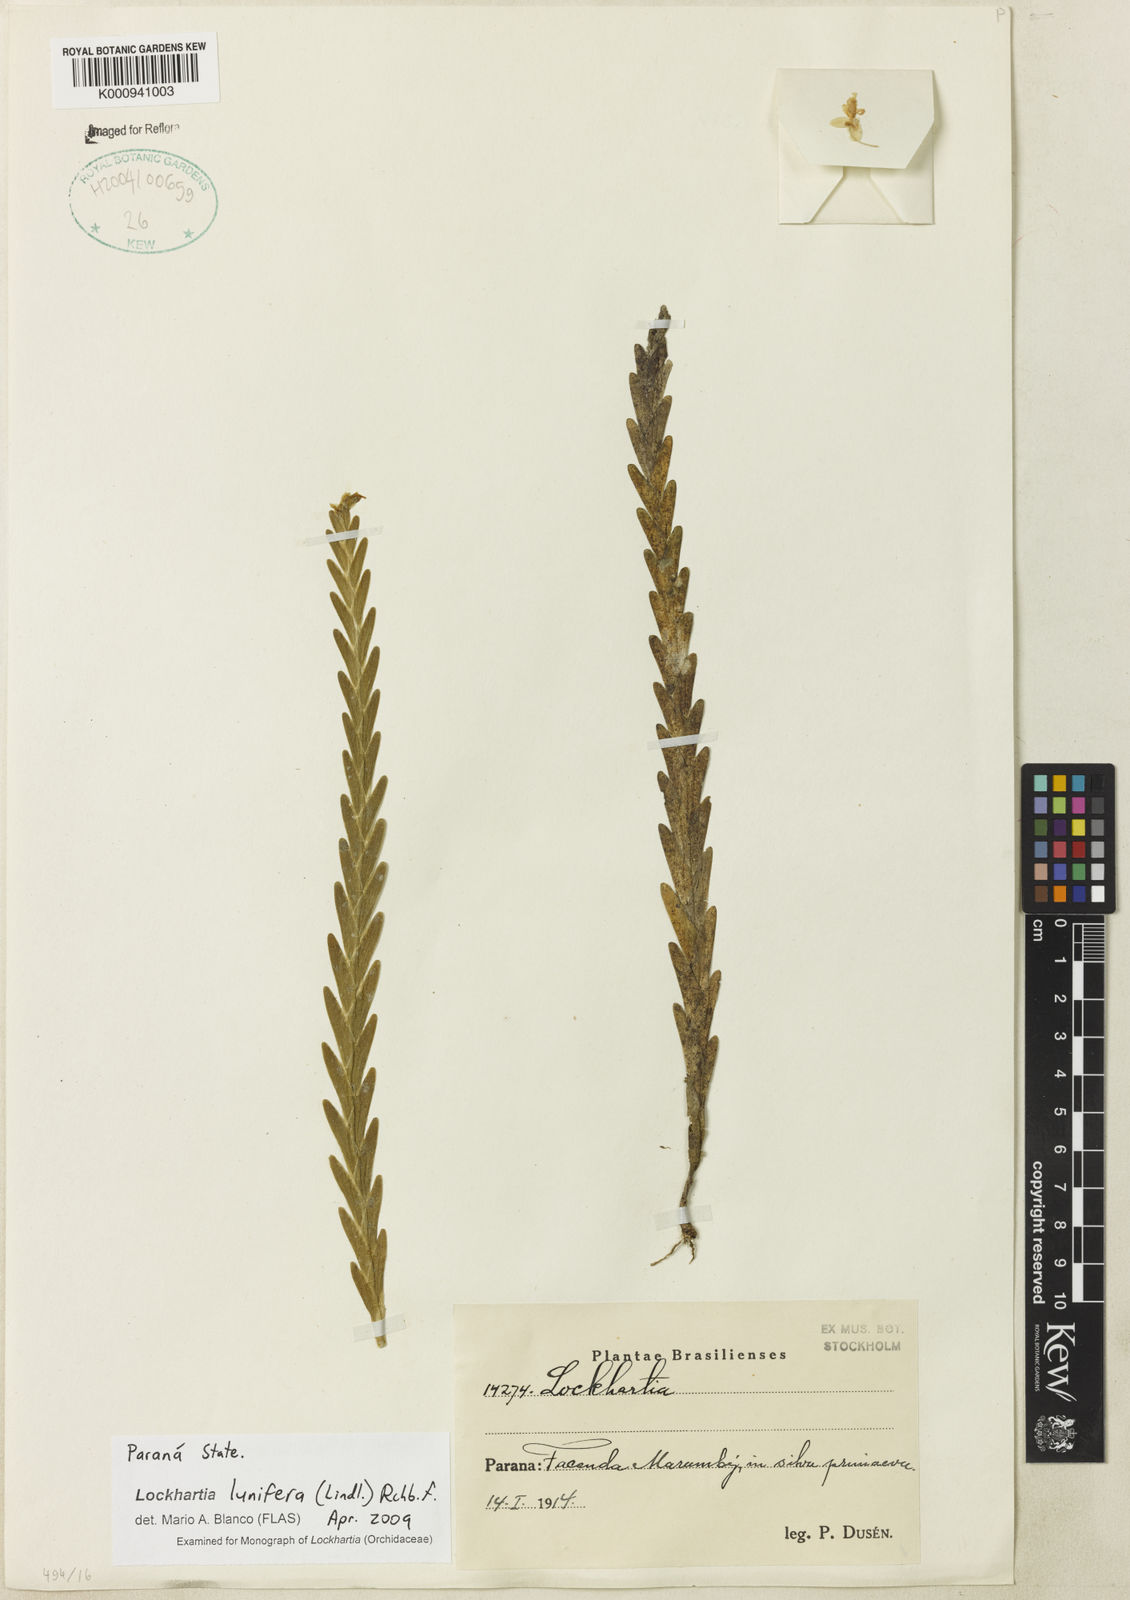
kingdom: Plantae
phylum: Tracheophyta
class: Liliopsida
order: Asparagales
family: Orchidaceae
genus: Lockhartia
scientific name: Lockhartia lunifera
